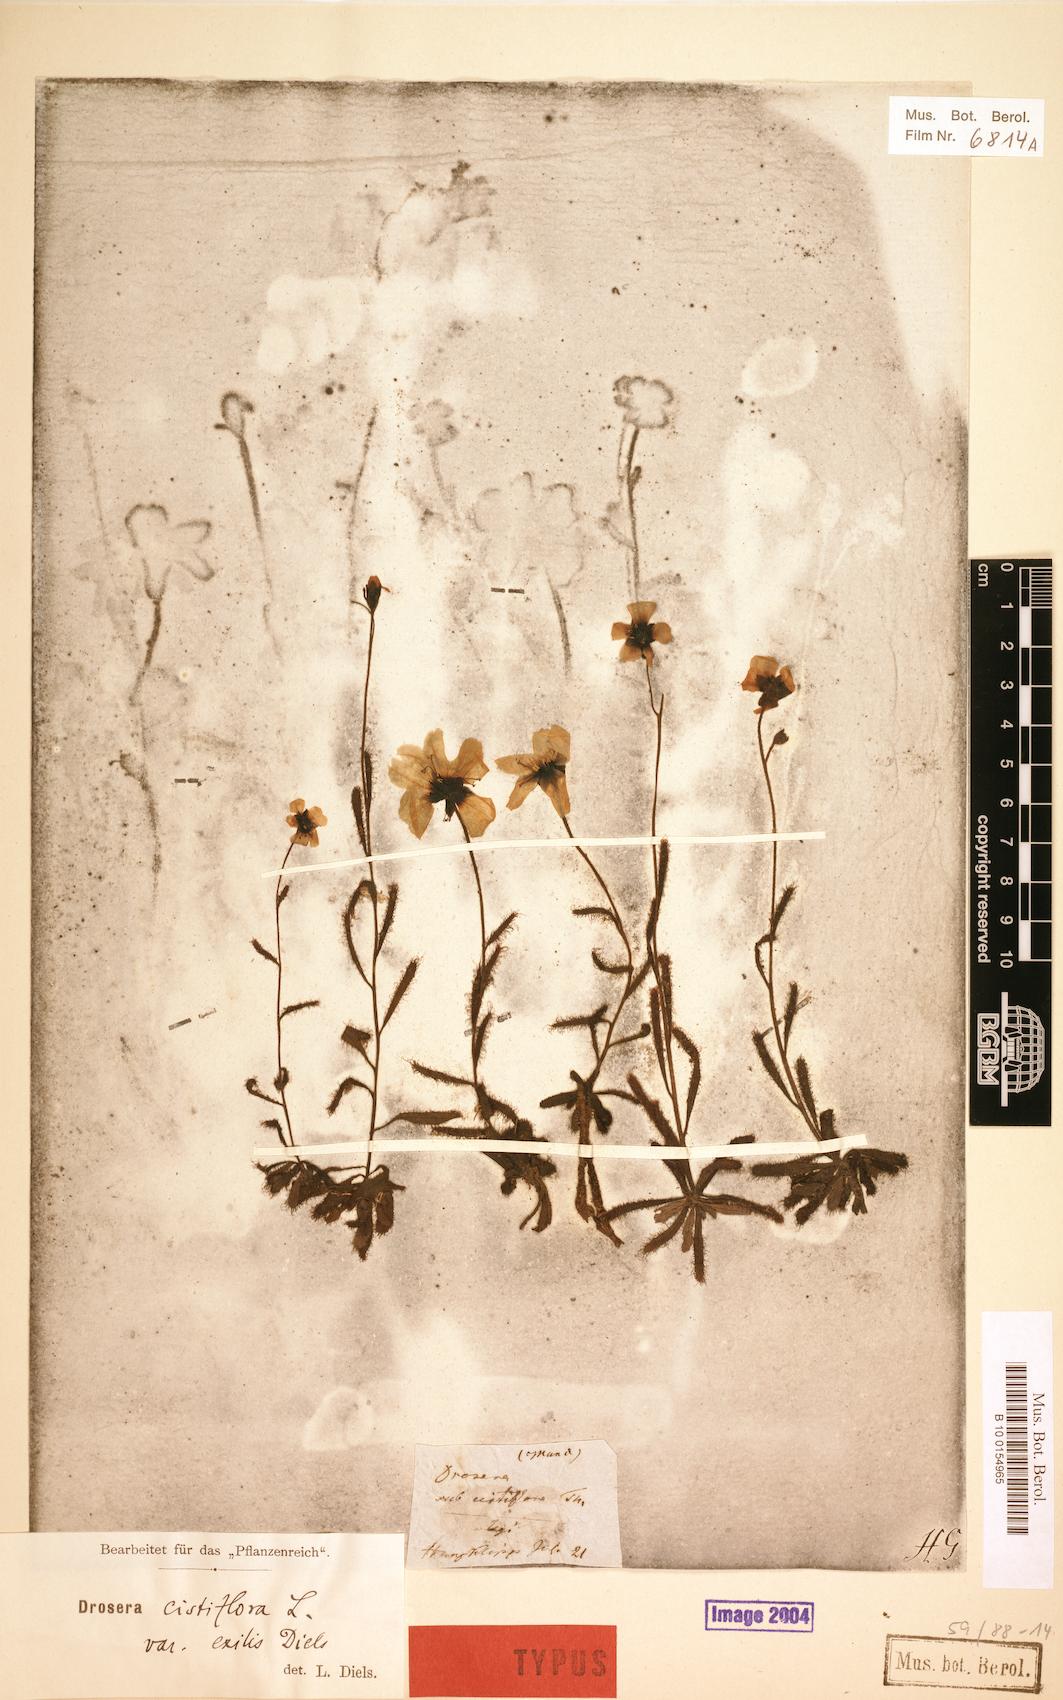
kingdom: Plantae
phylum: Tracheophyta
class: Magnoliopsida
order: Caryophyllales
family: Droseraceae
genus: Drosera
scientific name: Drosera cistiflora
